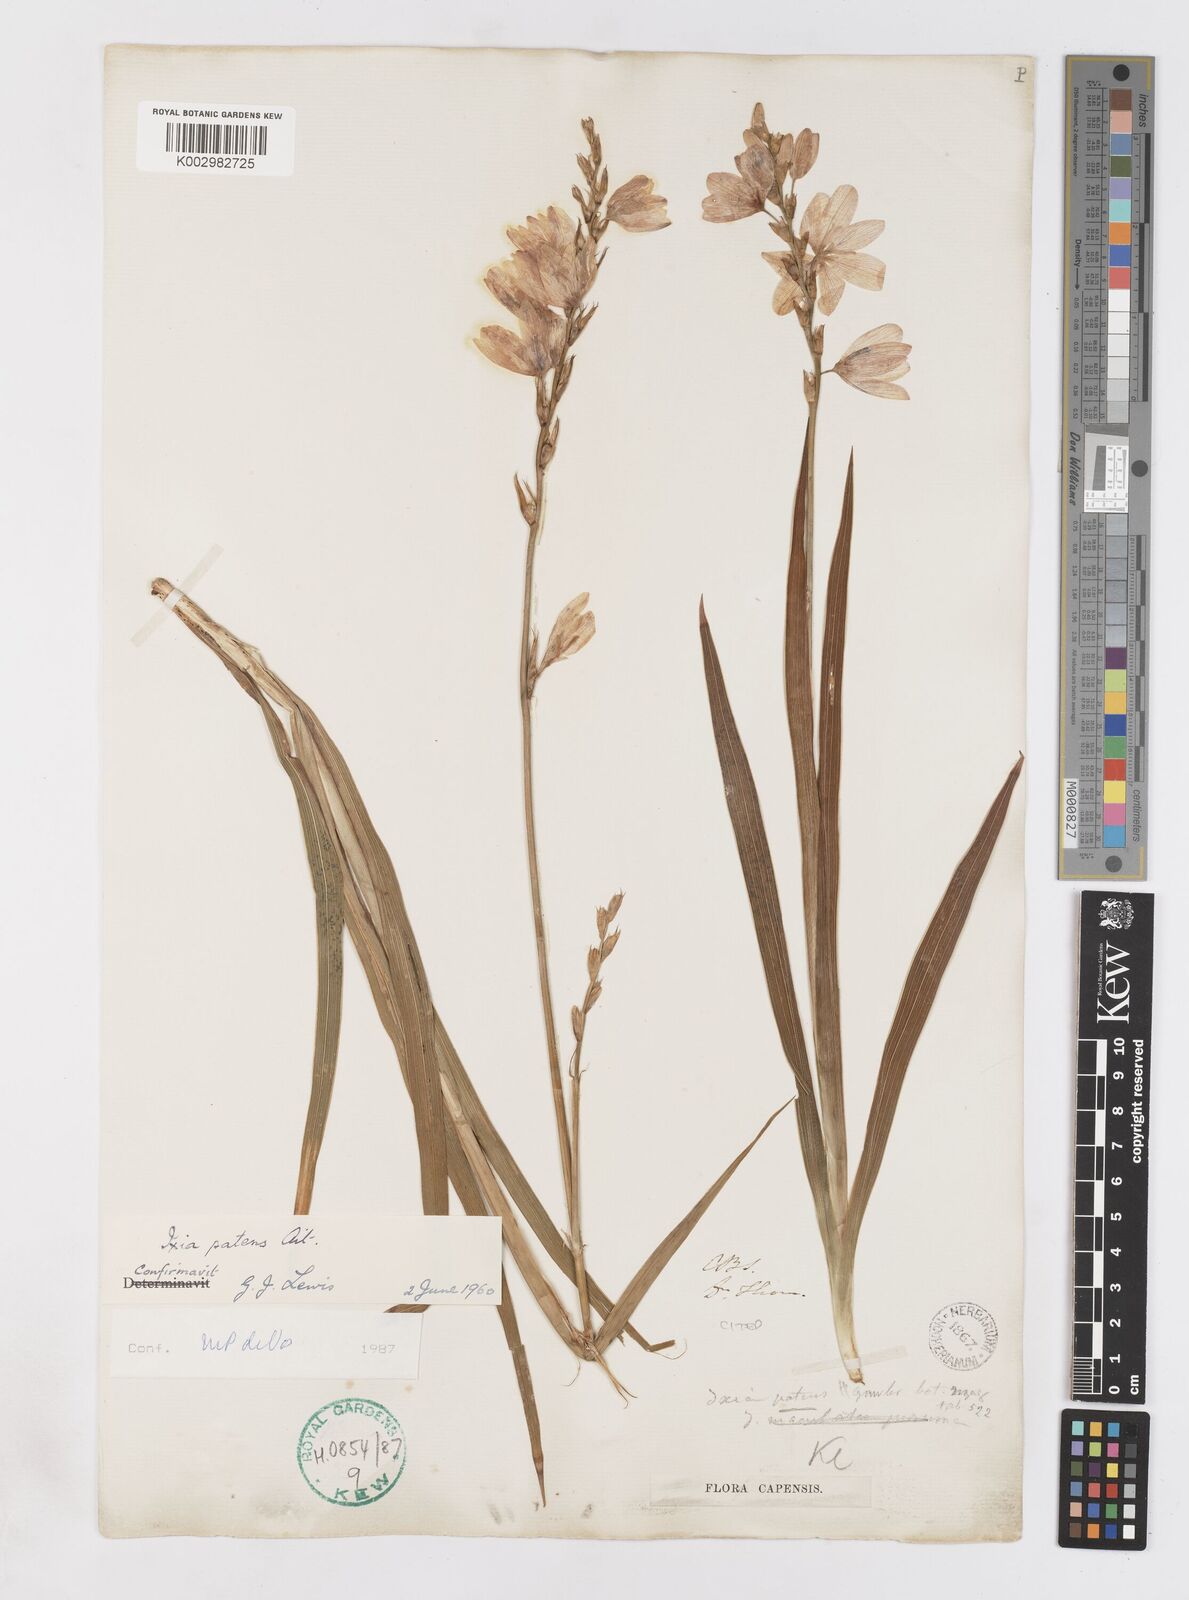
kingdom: Plantae
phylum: Tracheophyta
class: Liliopsida
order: Asparagales
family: Iridaceae
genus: Ixia
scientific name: Ixia patens
